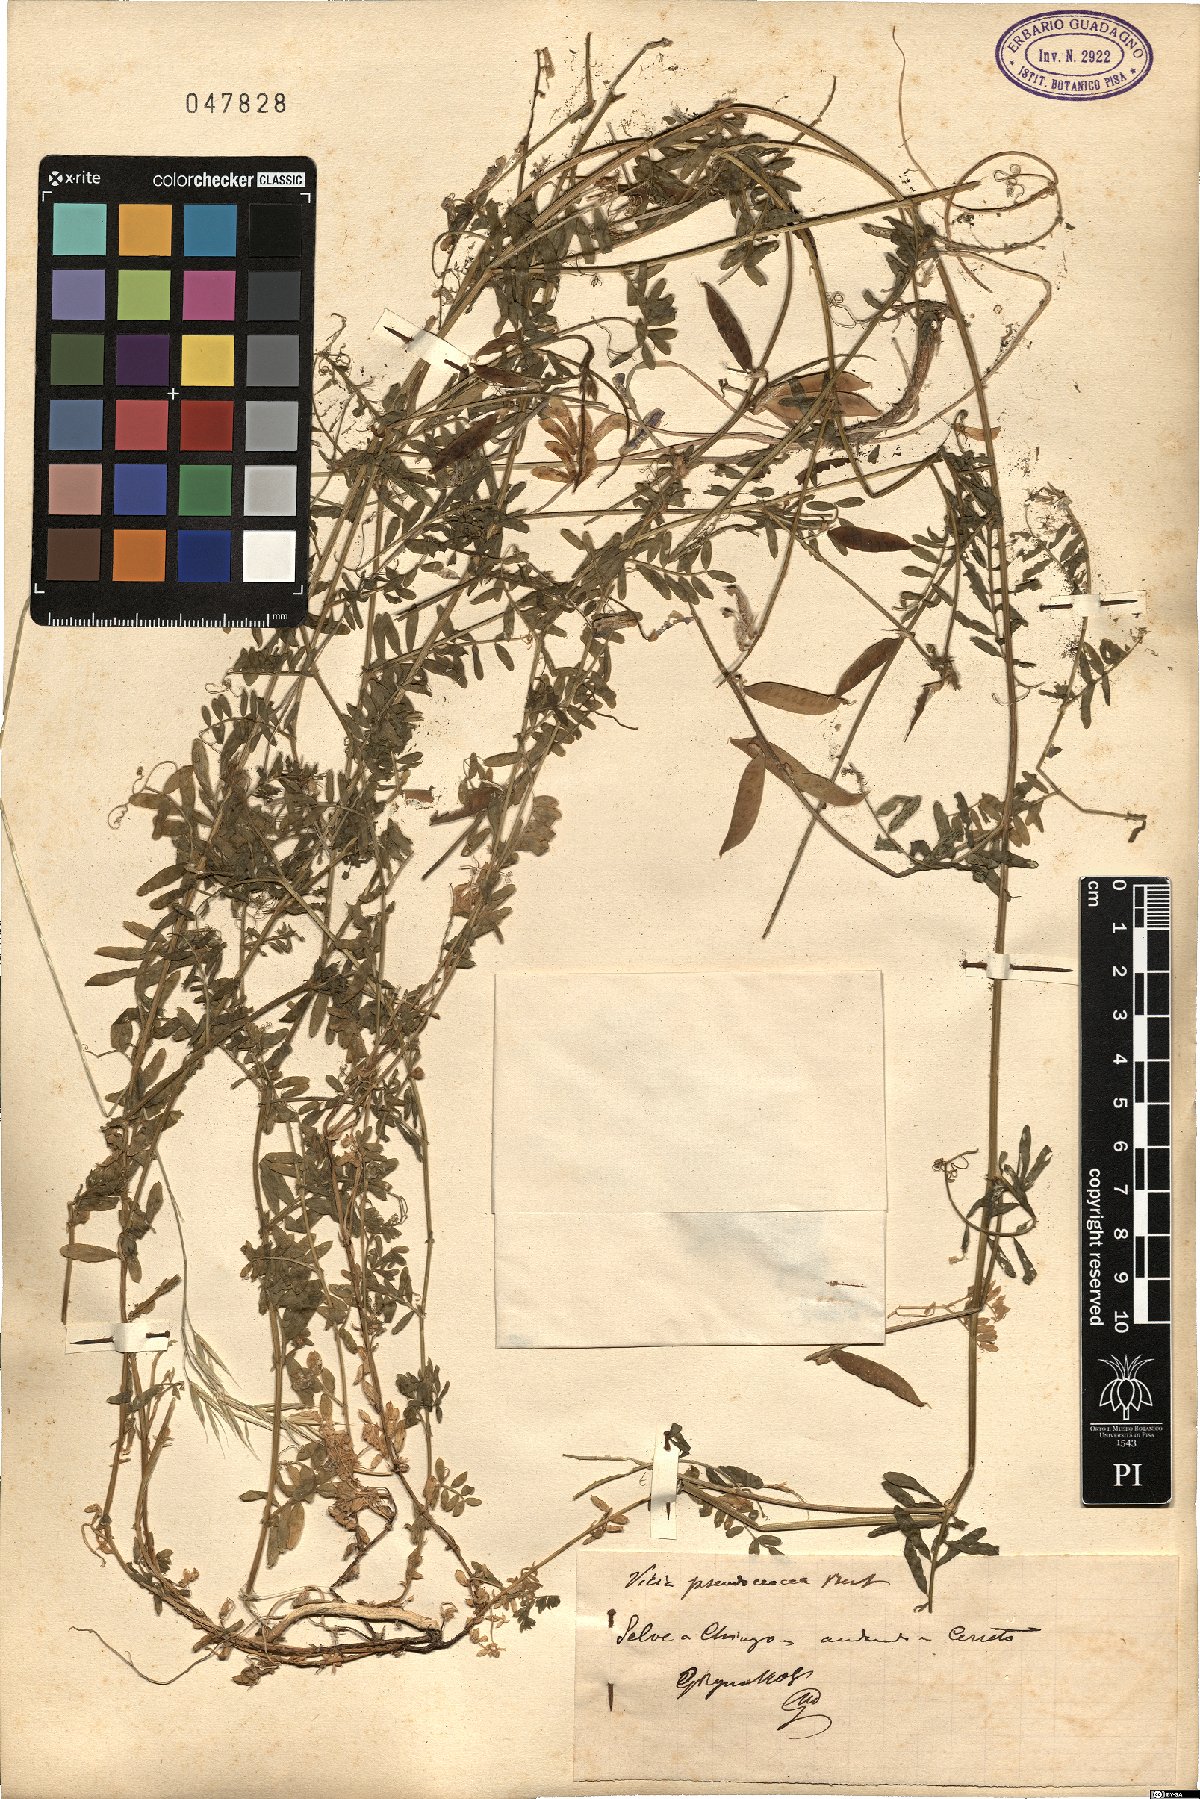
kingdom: Plantae
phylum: Tracheophyta
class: Magnoliopsida
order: Fabales
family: Fabaceae
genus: Vicia
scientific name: Vicia villosa
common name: Fodder vetch
